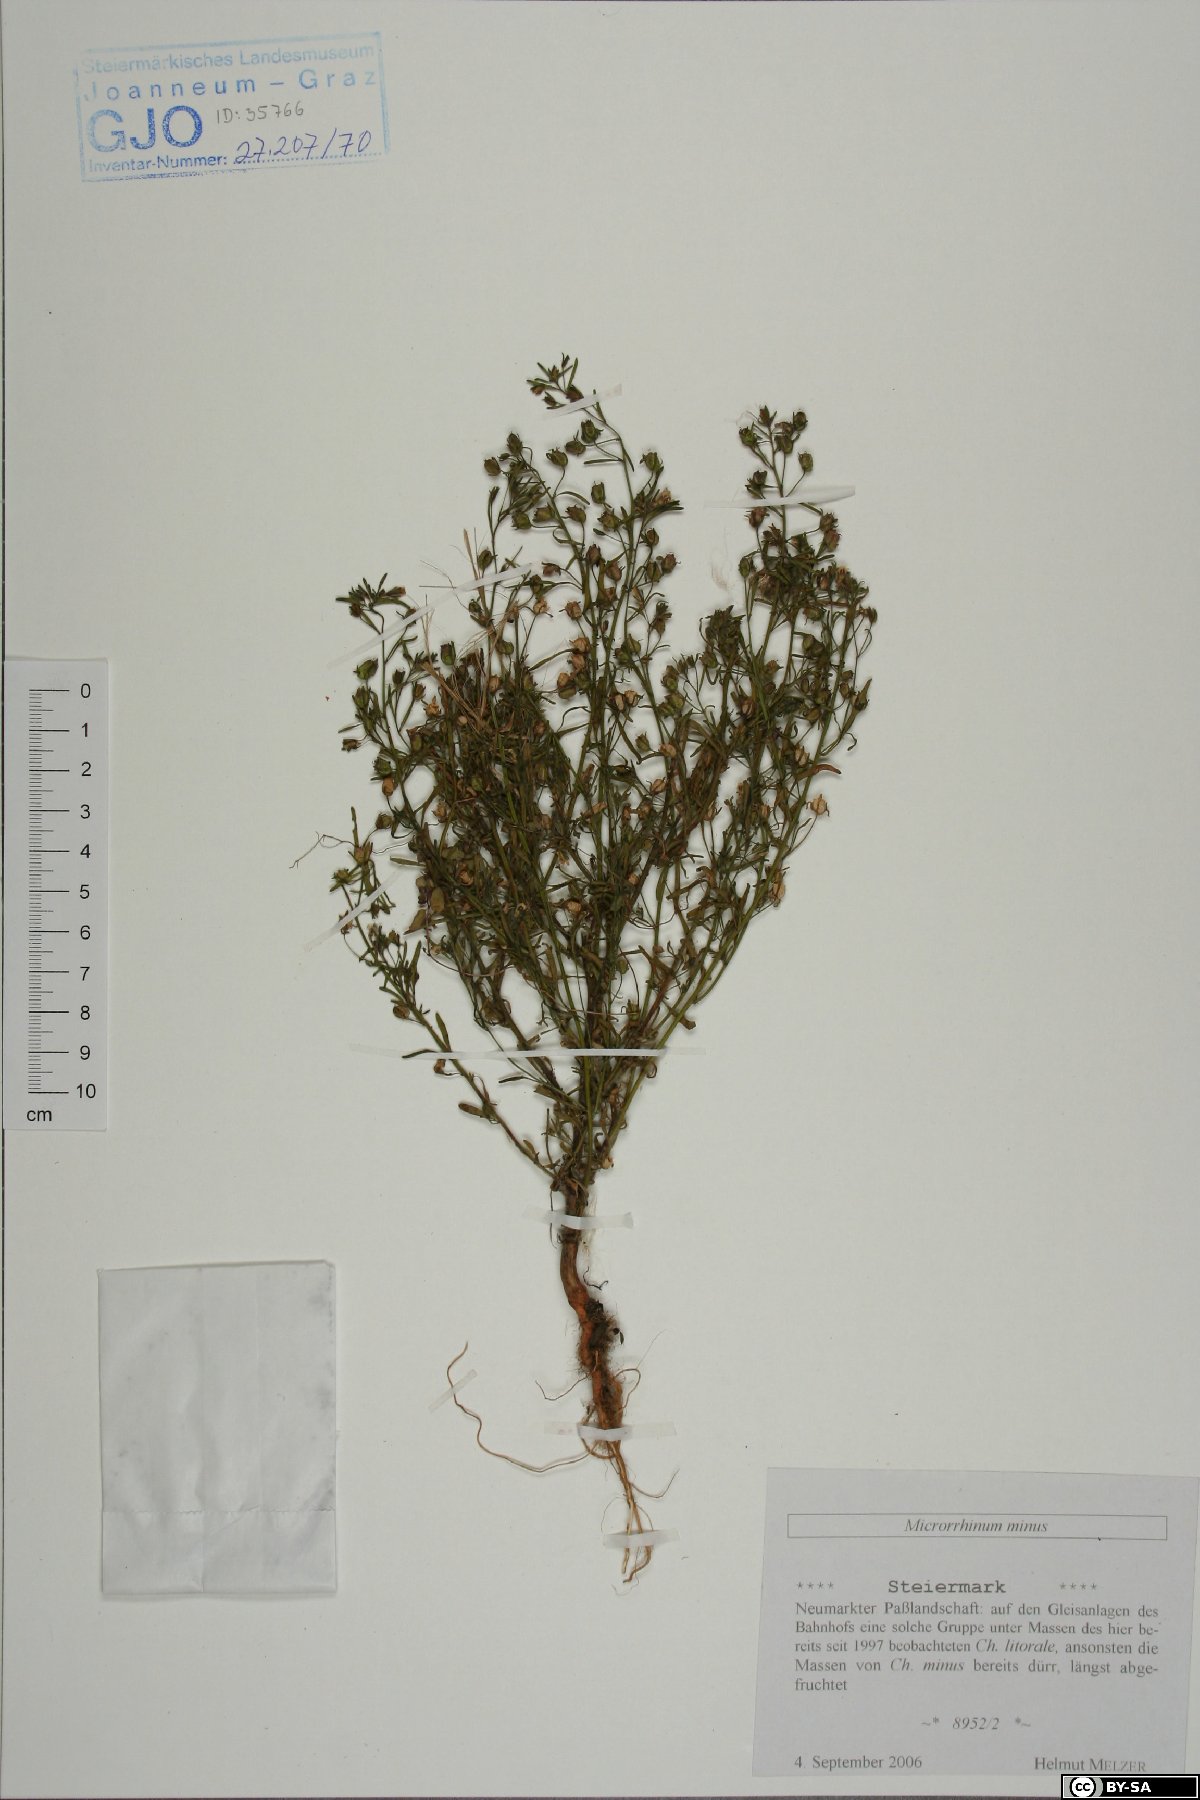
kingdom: Plantae
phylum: Tracheophyta
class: Magnoliopsida
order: Lamiales
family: Plantaginaceae
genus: Chaenorhinum
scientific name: Chaenorhinum minus
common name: Dwarf snapdragon
